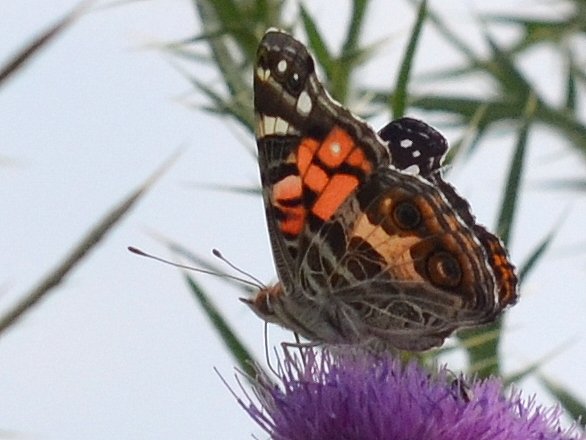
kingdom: Animalia
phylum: Arthropoda
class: Insecta
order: Lepidoptera
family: Nymphalidae
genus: Vanessa
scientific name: Vanessa virginiensis
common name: American Lady
